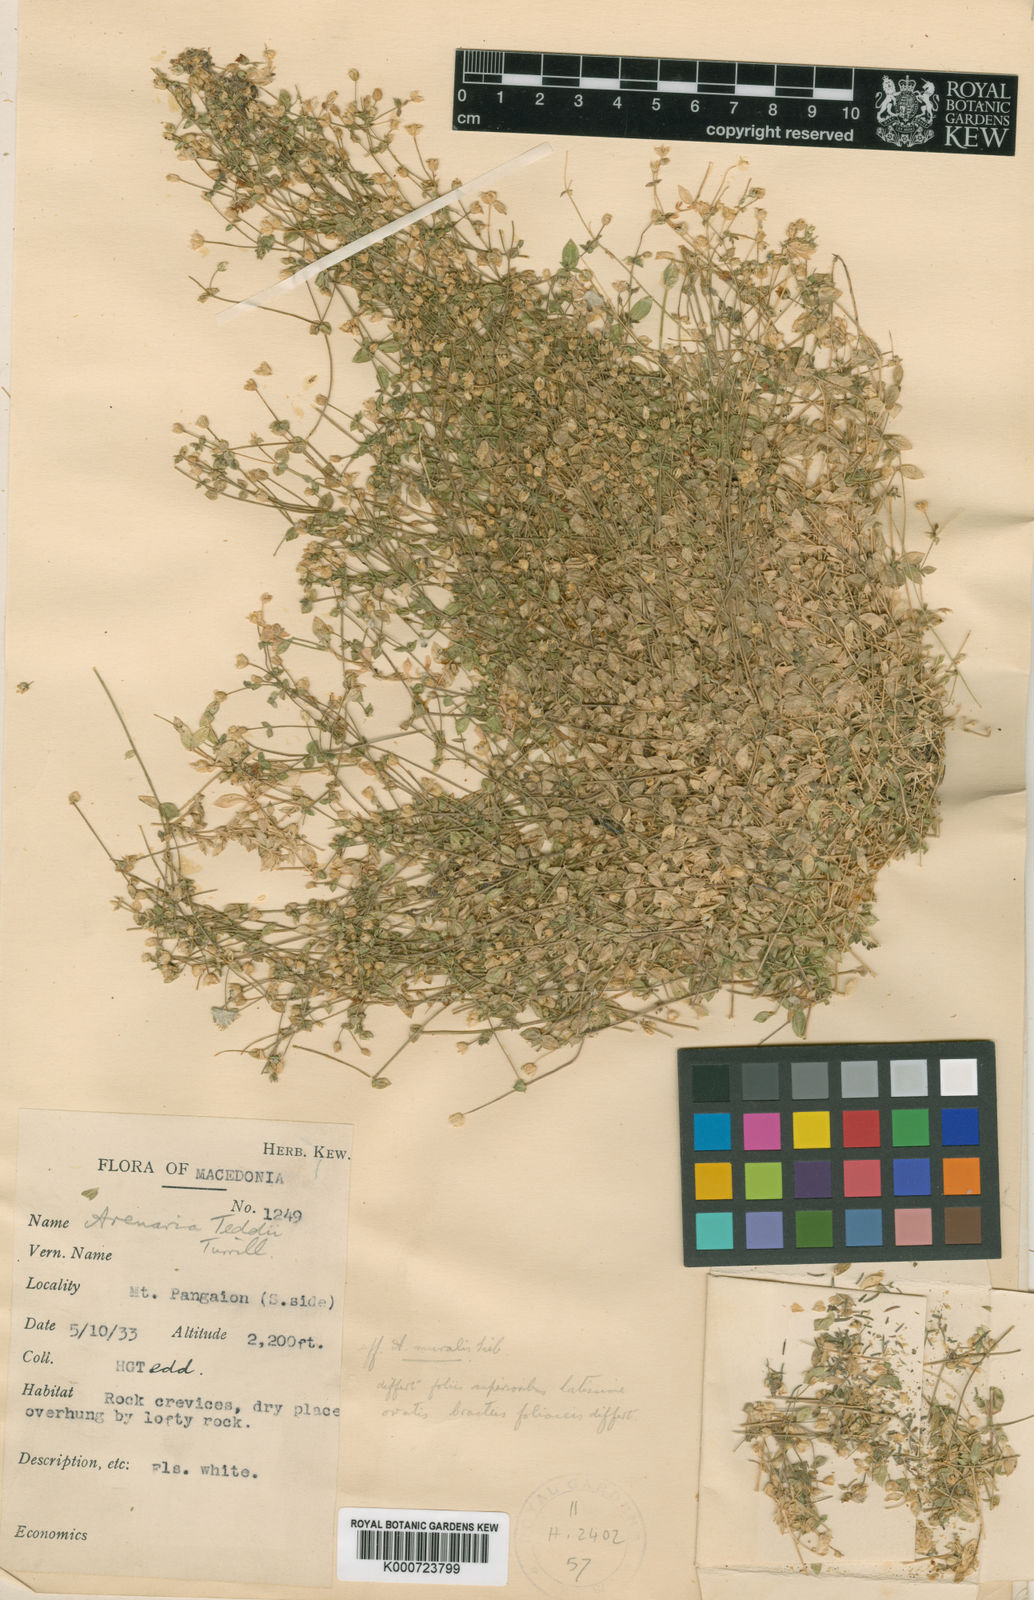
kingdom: Plantae
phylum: Tracheophyta
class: Magnoliopsida
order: Caryophyllales
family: Caryophyllaceae
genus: Arenaria
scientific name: Arenaria
